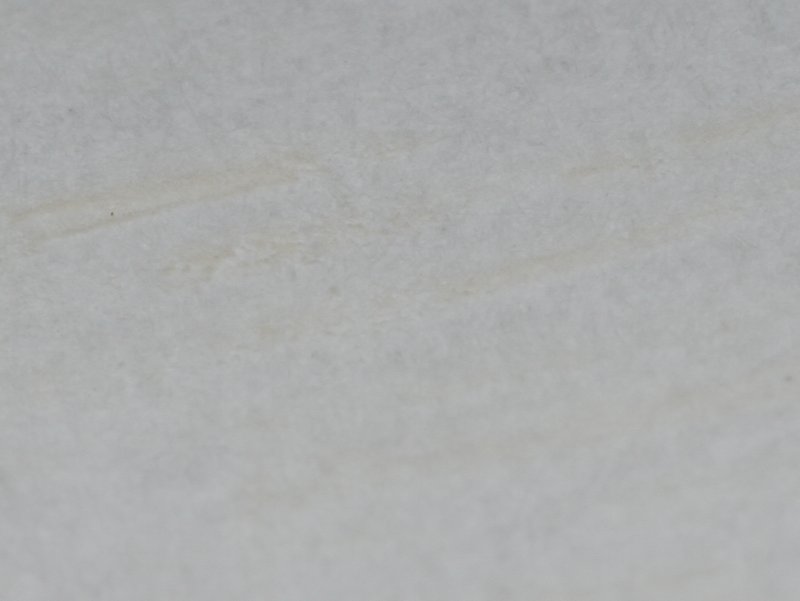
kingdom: Fungi
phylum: Basidiomycota
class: Agaricomycetes
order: Russulales
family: Russulaceae
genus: Russula
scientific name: Russula
